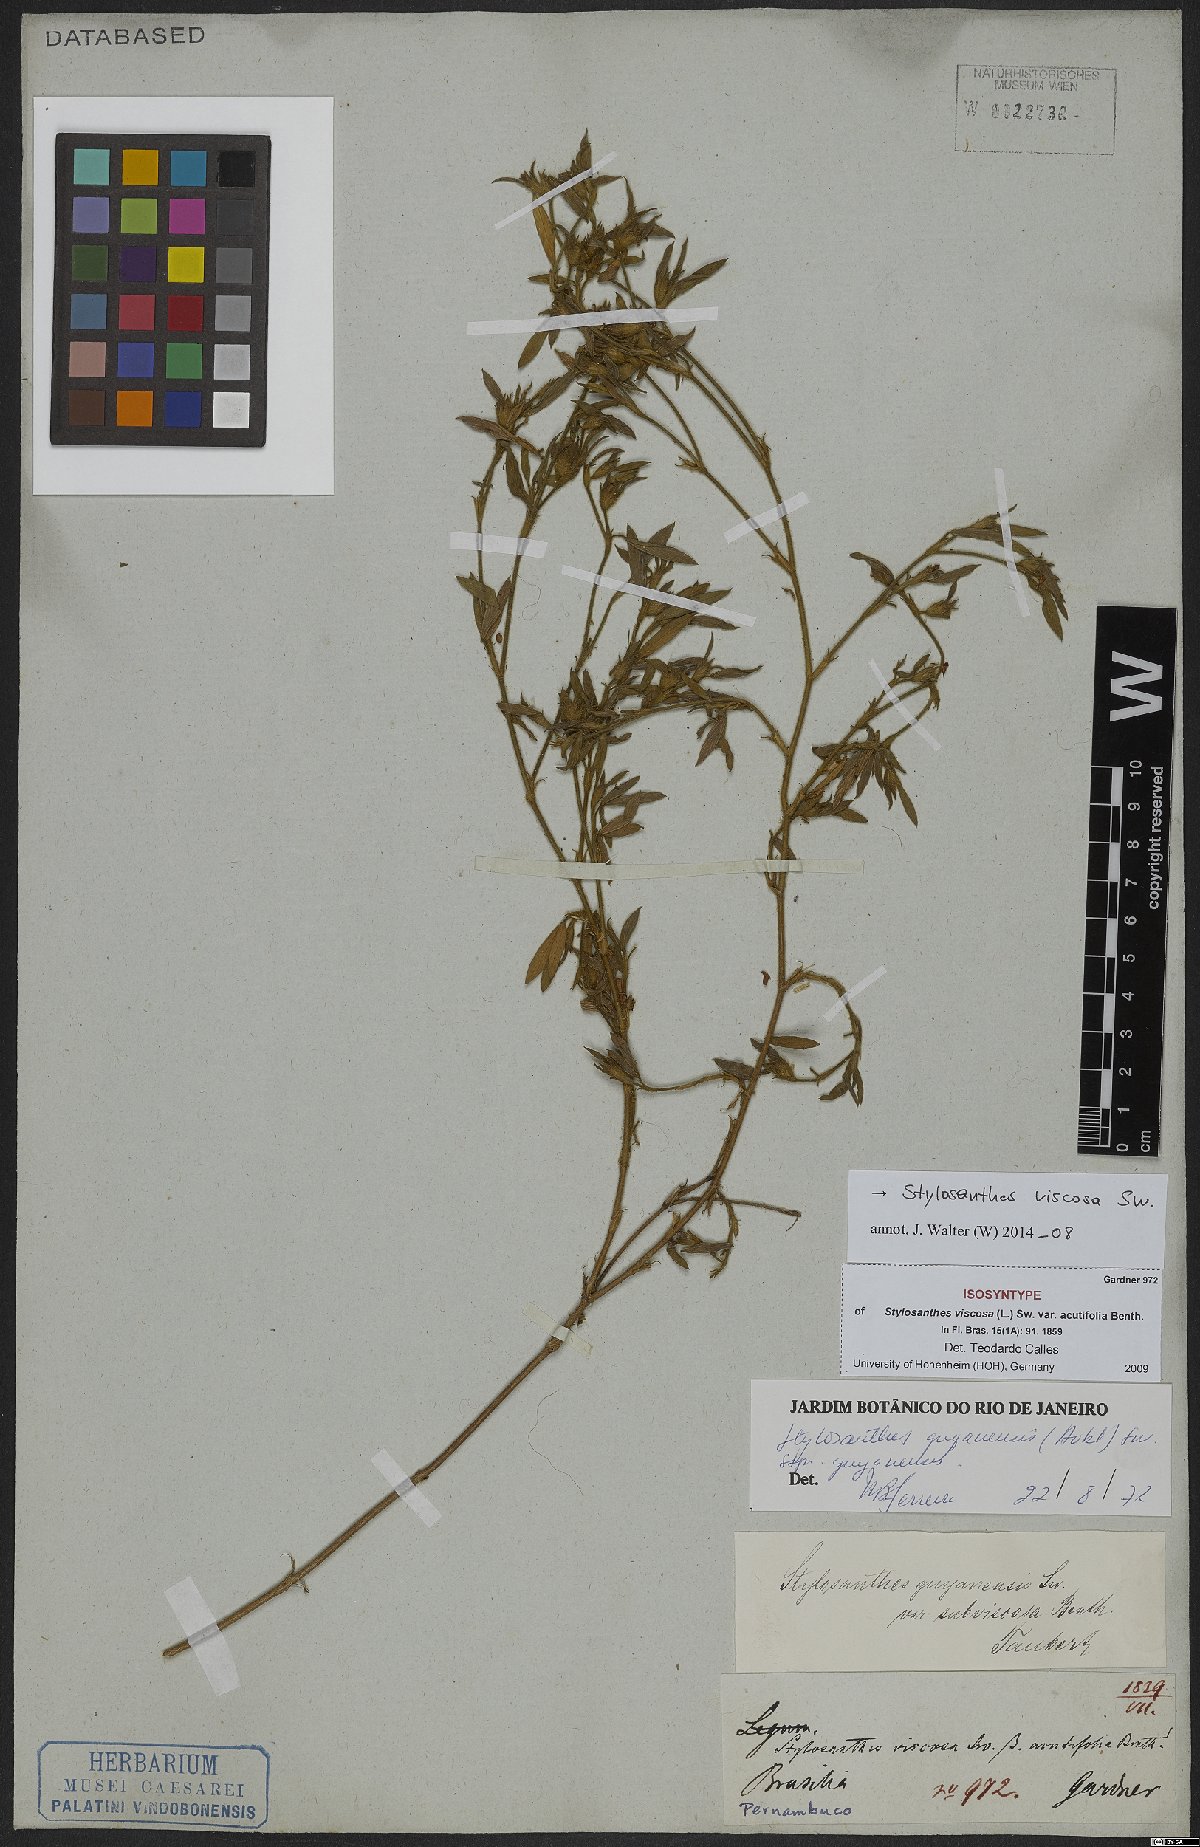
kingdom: Plantae
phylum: Tracheophyta
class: Magnoliopsida
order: Fabales
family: Fabaceae
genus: Stylosanthes
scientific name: Stylosanthes viscosa
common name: Viscid pencil-flower
